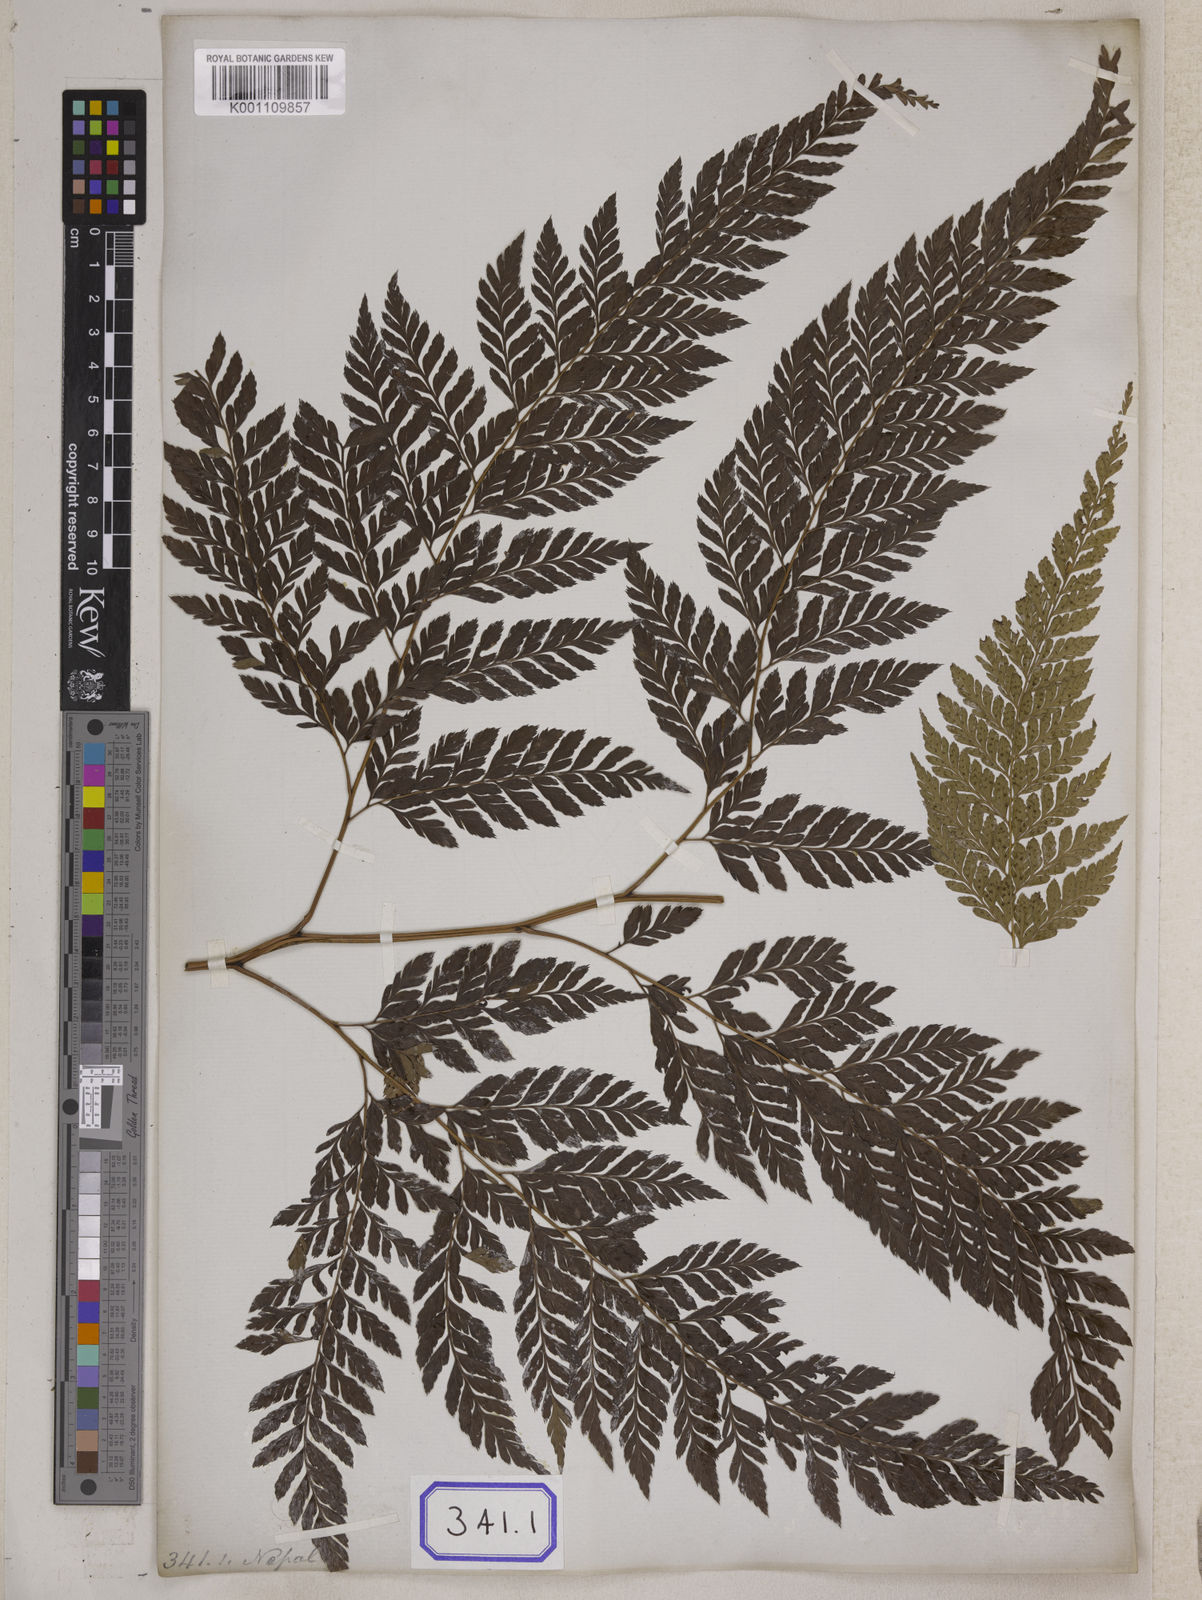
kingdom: Plantae
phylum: Tracheophyta
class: Polypodiopsida
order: Polypodiales
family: Dryopteridaceae
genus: Arachniodes
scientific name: Arachniodes coniifolia
